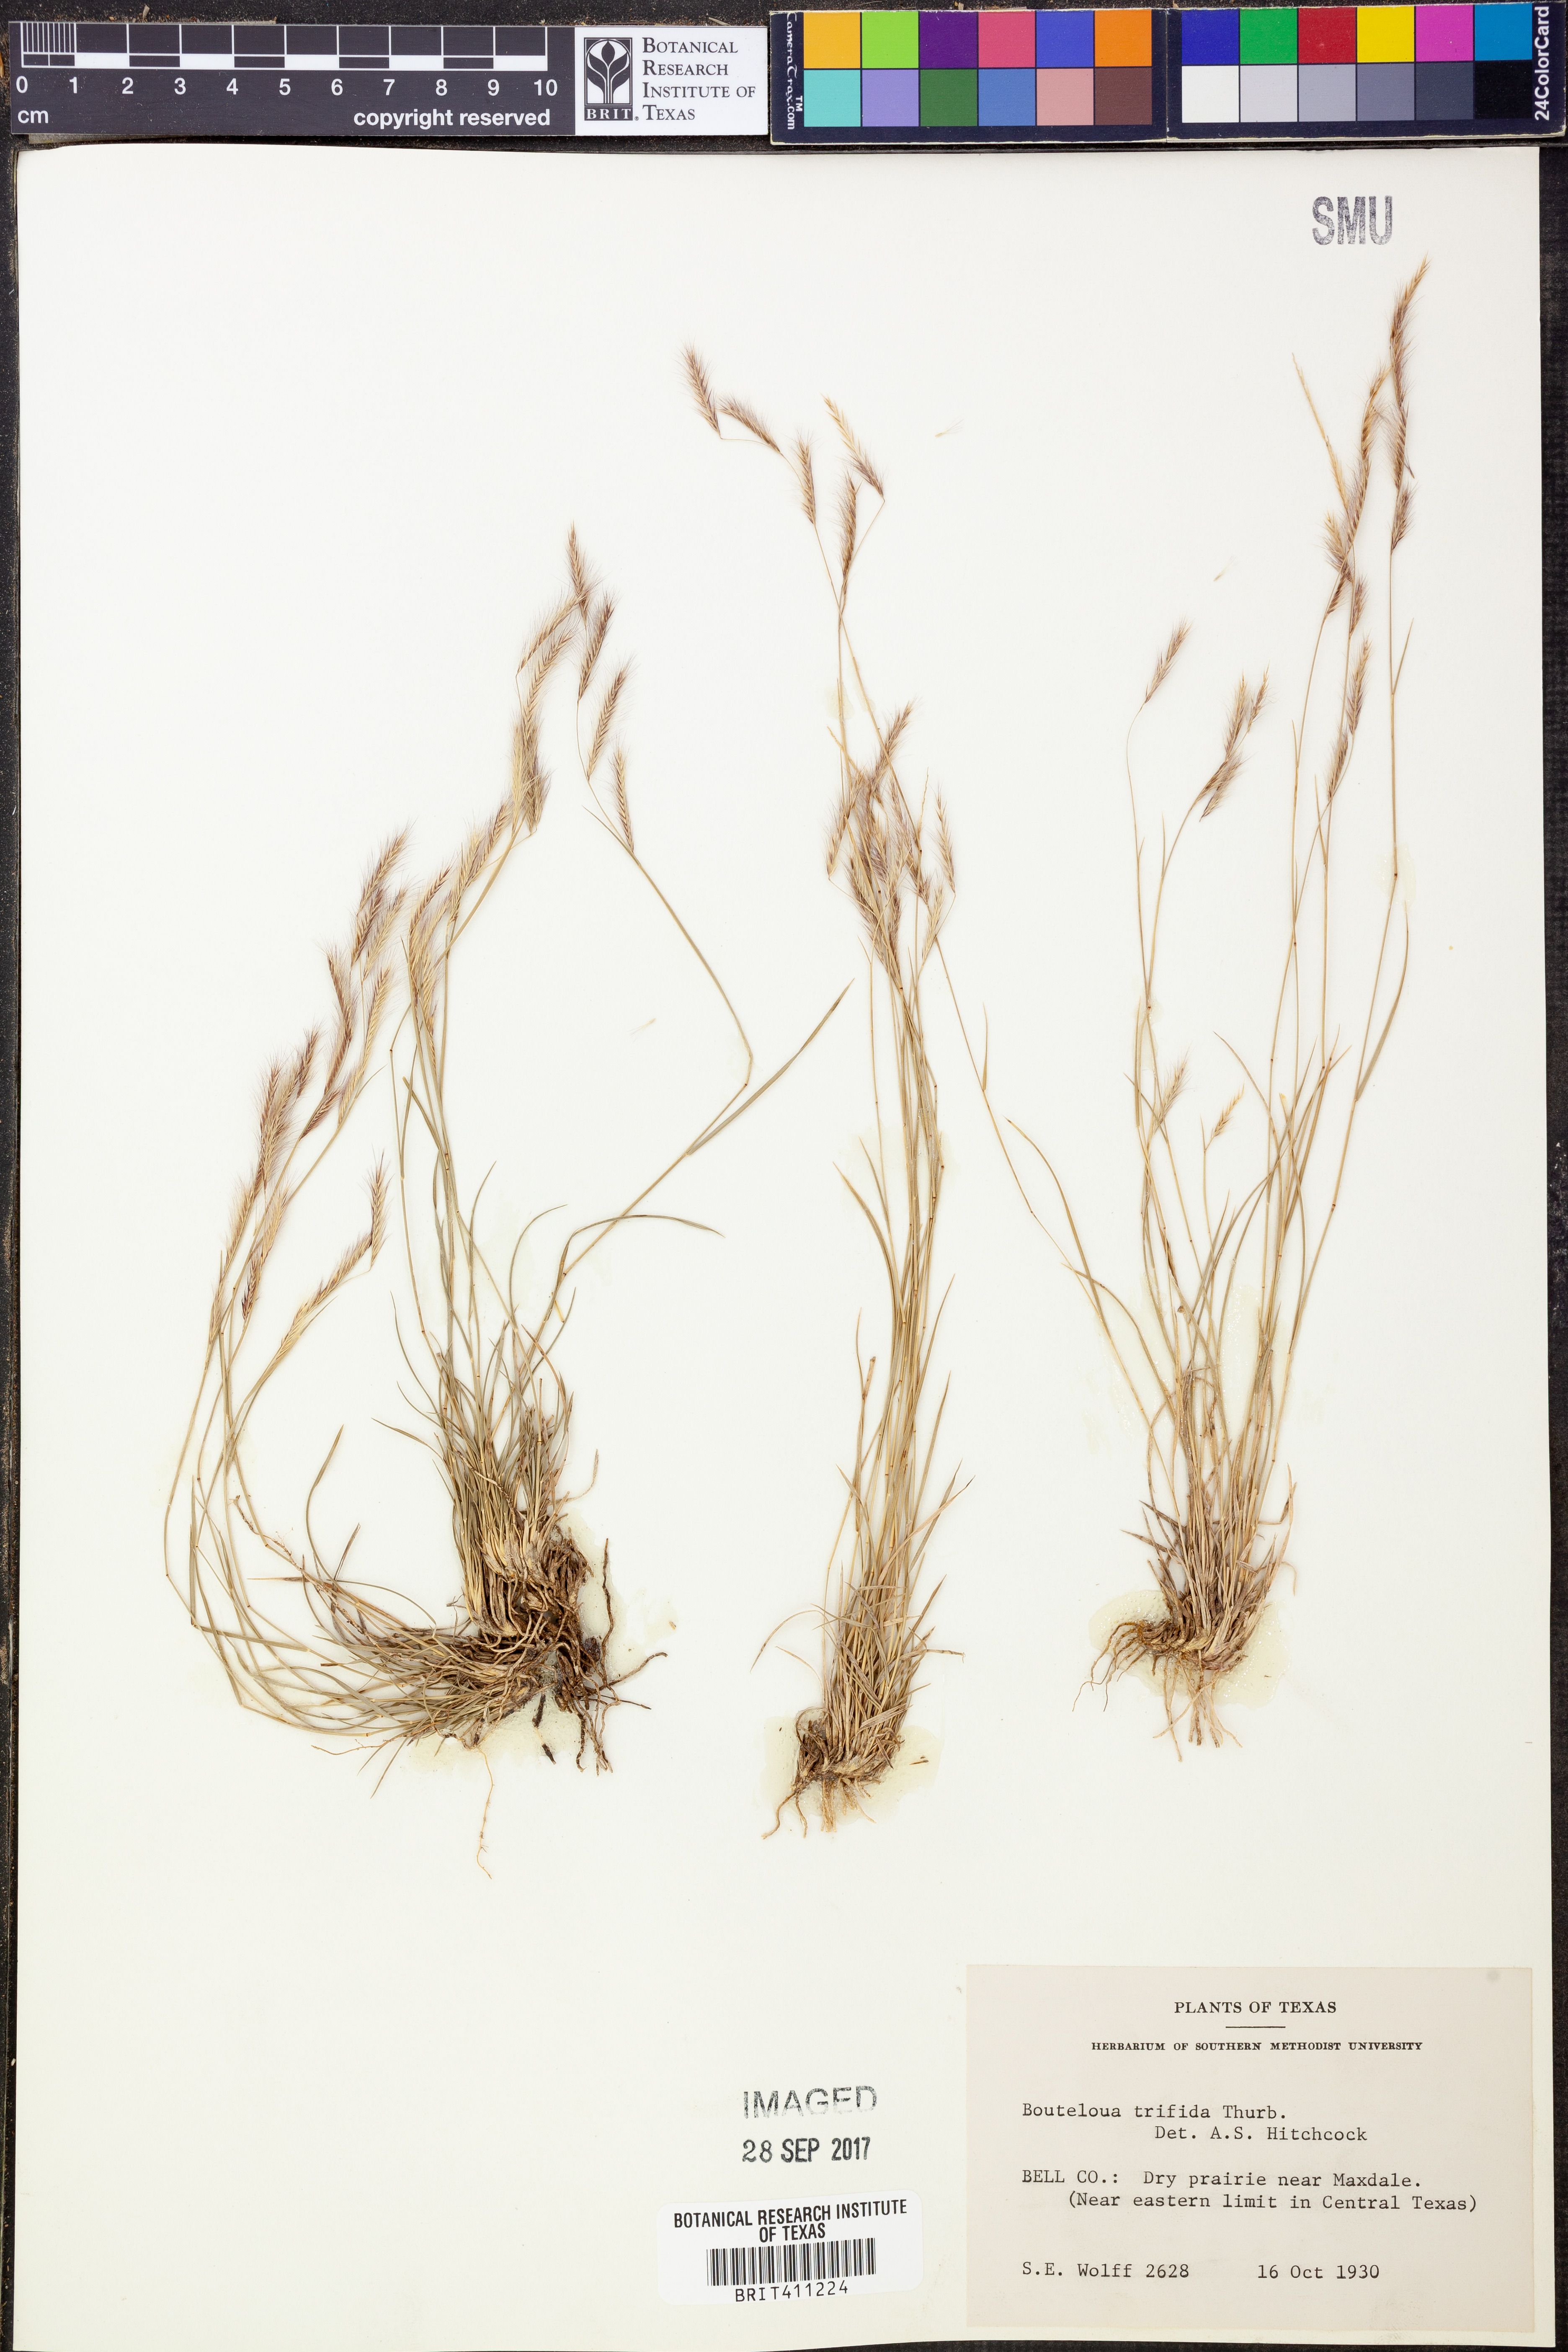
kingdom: Plantae
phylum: Tracheophyta
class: Liliopsida
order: Poales
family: Poaceae
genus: Bouteloua
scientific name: Bouteloua trifida
